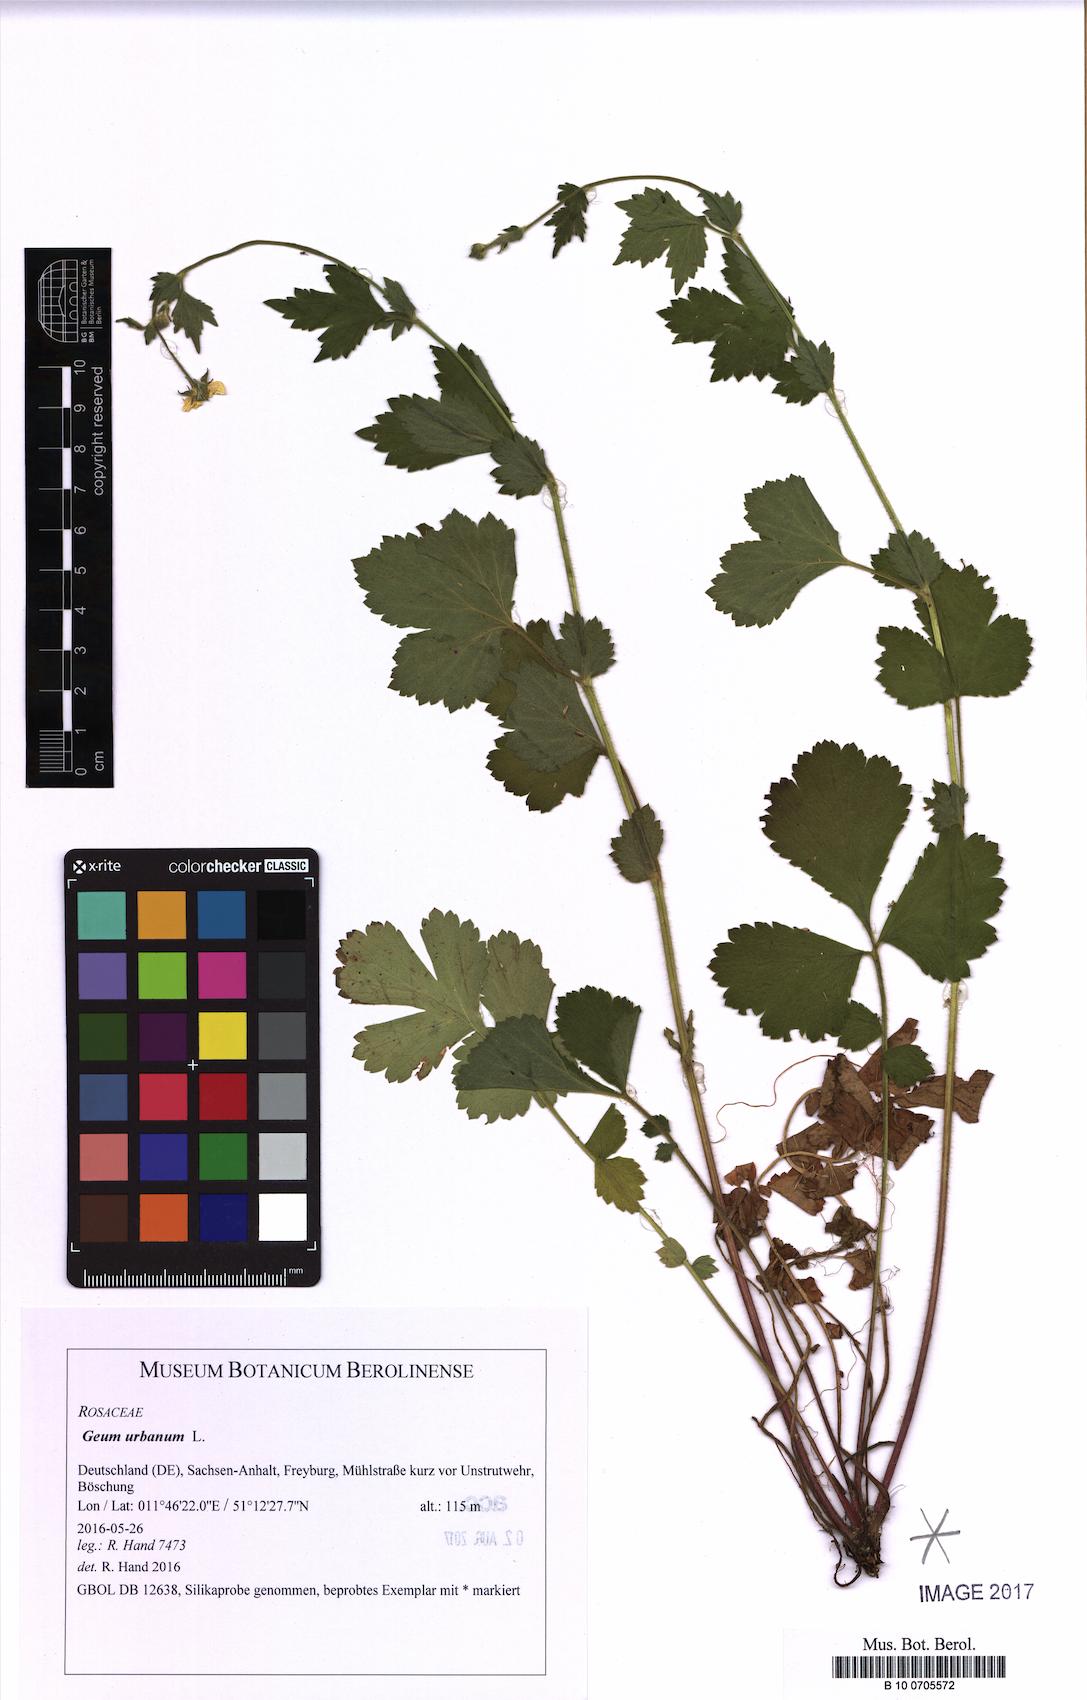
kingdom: Plantae
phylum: Tracheophyta
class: Magnoliopsida
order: Rosales
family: Rosaceae
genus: Geum
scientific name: Geum urbanum
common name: Wood avens
